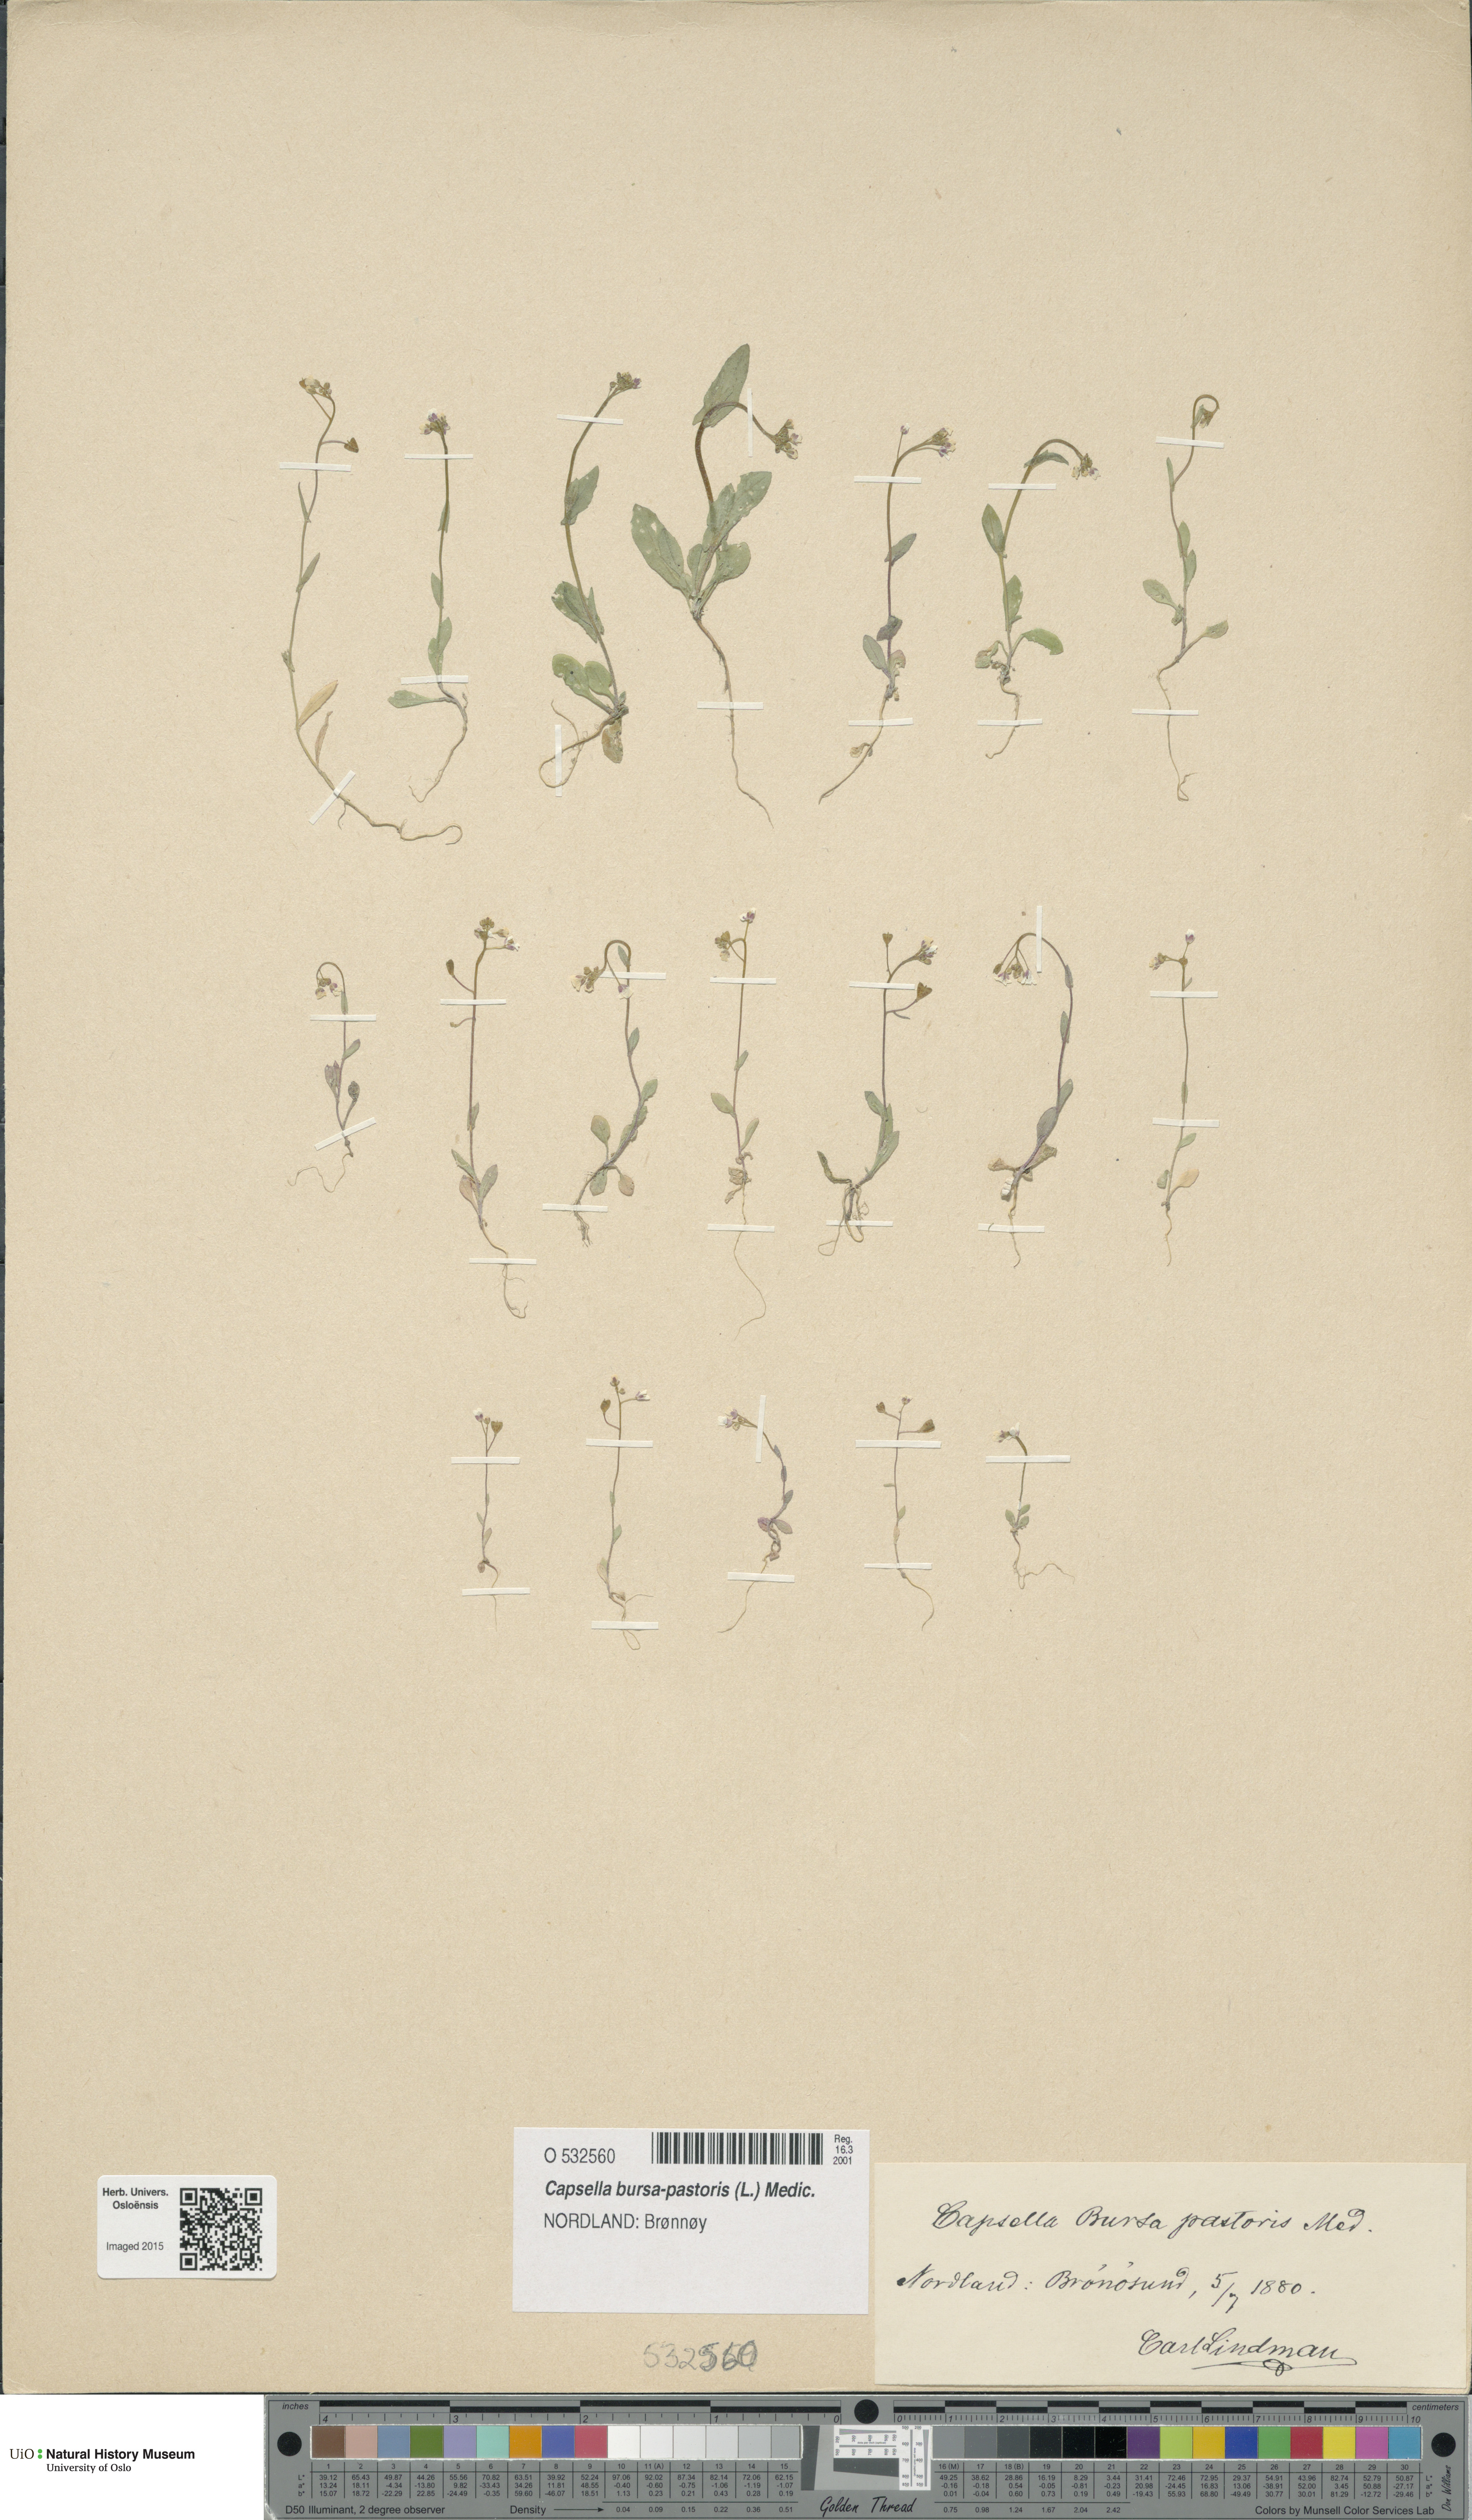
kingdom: Plantae
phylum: Tracheophyta
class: Magnoliopsida
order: Brassicales
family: Brassicaceae
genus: Capsella
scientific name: Capsella bursa-pastoris
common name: Shepherd's purse
